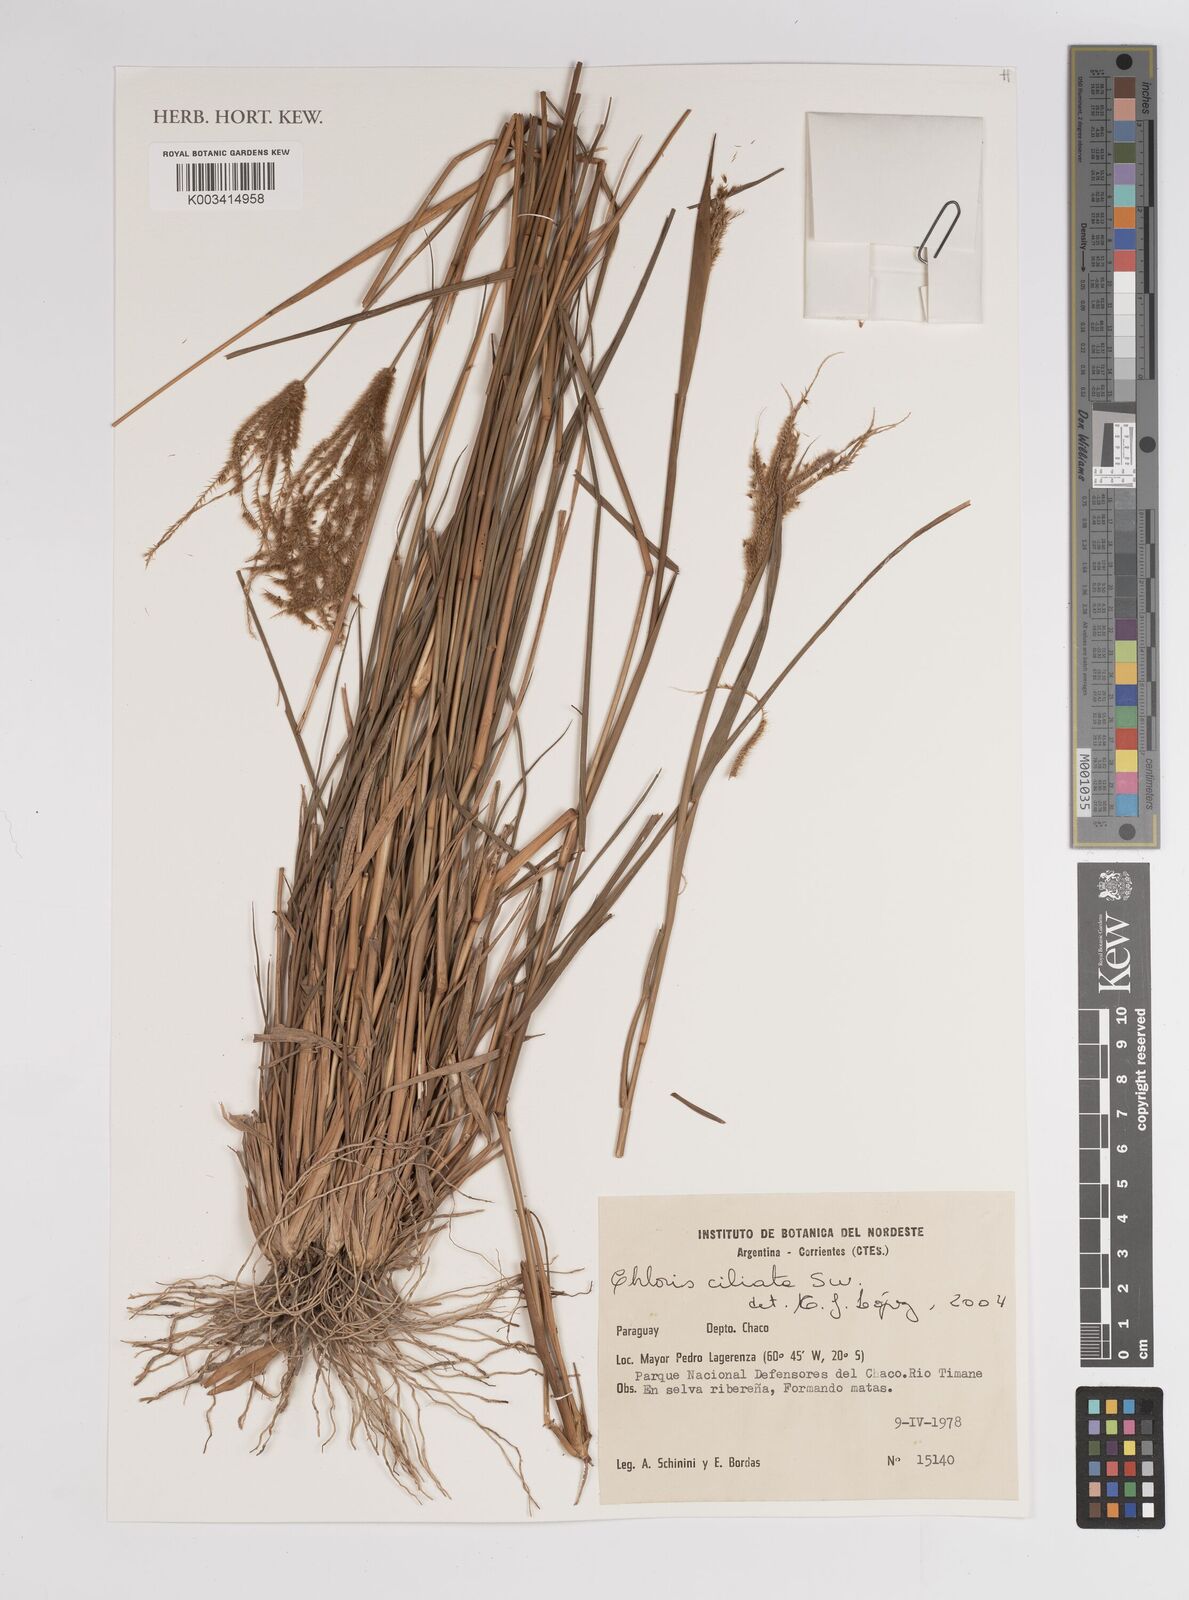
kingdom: Plantae
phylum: Tracheophyta
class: Liliopsida
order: Poales
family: Poaceae
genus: Stapfochloa
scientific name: Stapfochloa ciliata
